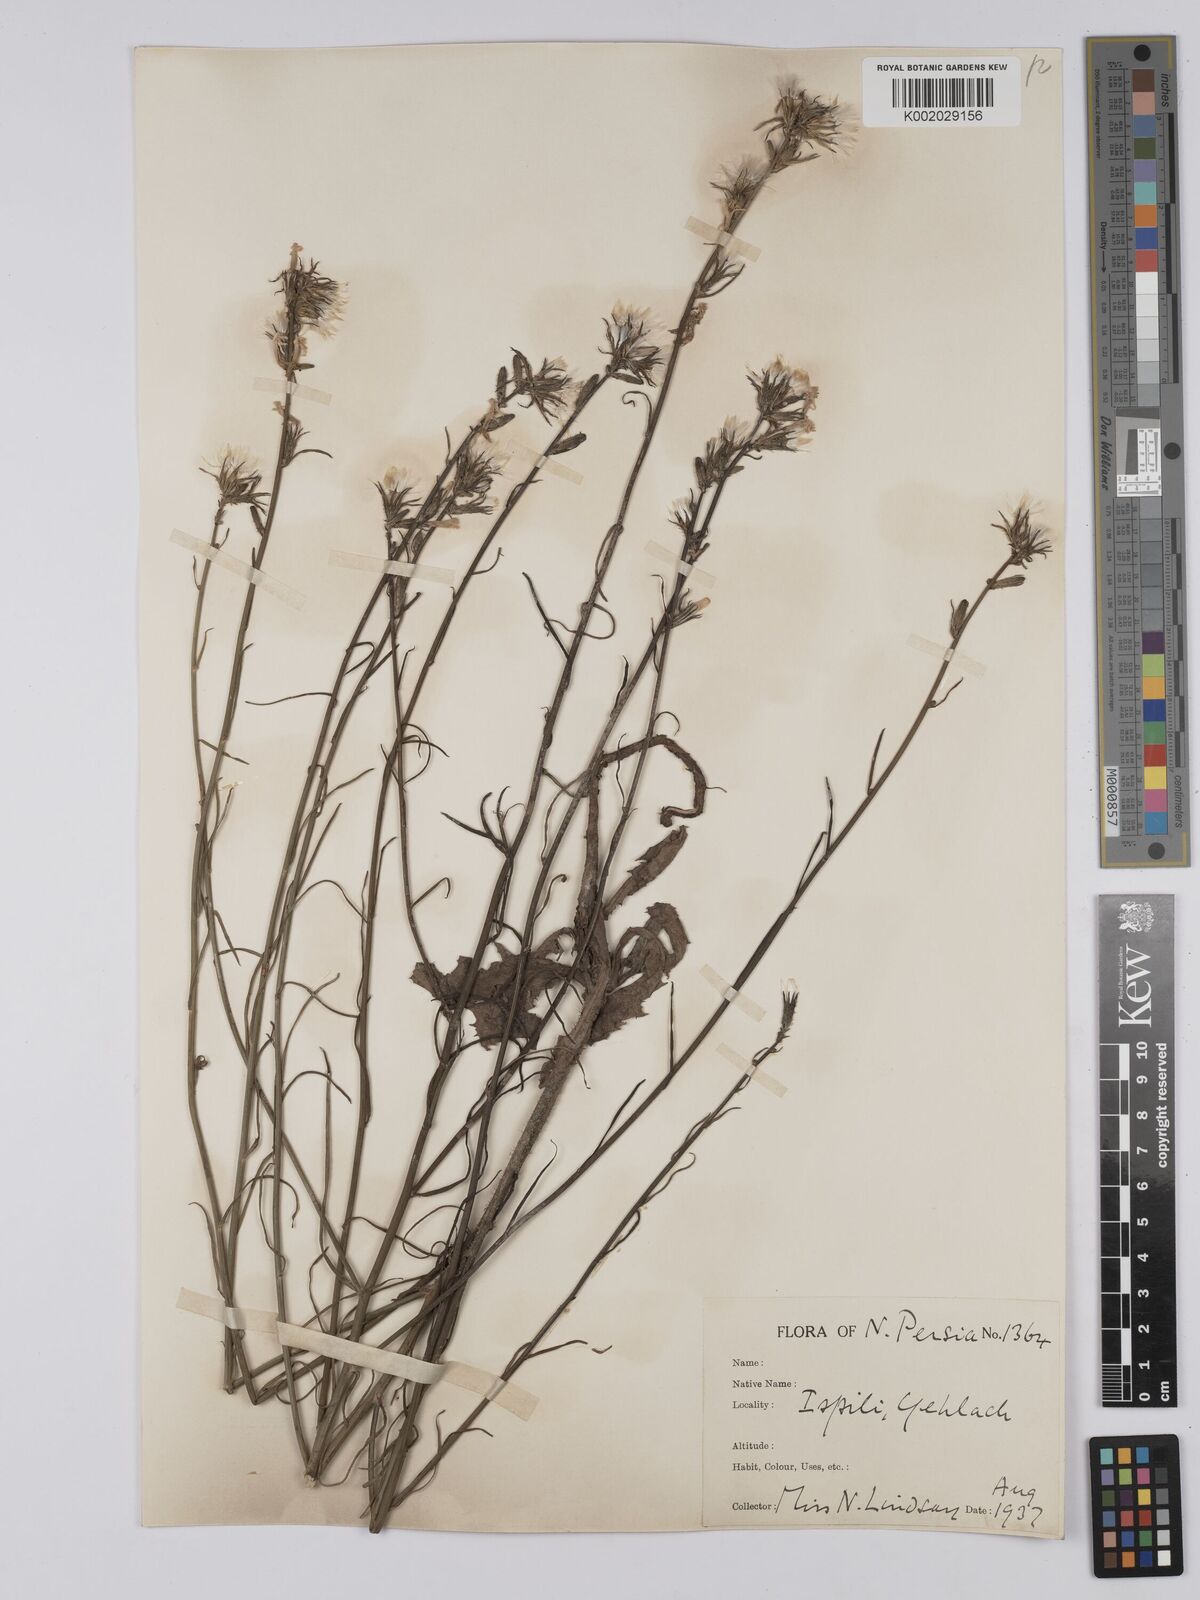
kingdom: Plantae
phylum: Tracheophyta
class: Magnoliopsida
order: Asterales
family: Asteraceae
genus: Chondrilla
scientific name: Chondrilla juncea
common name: Skeleton weed
